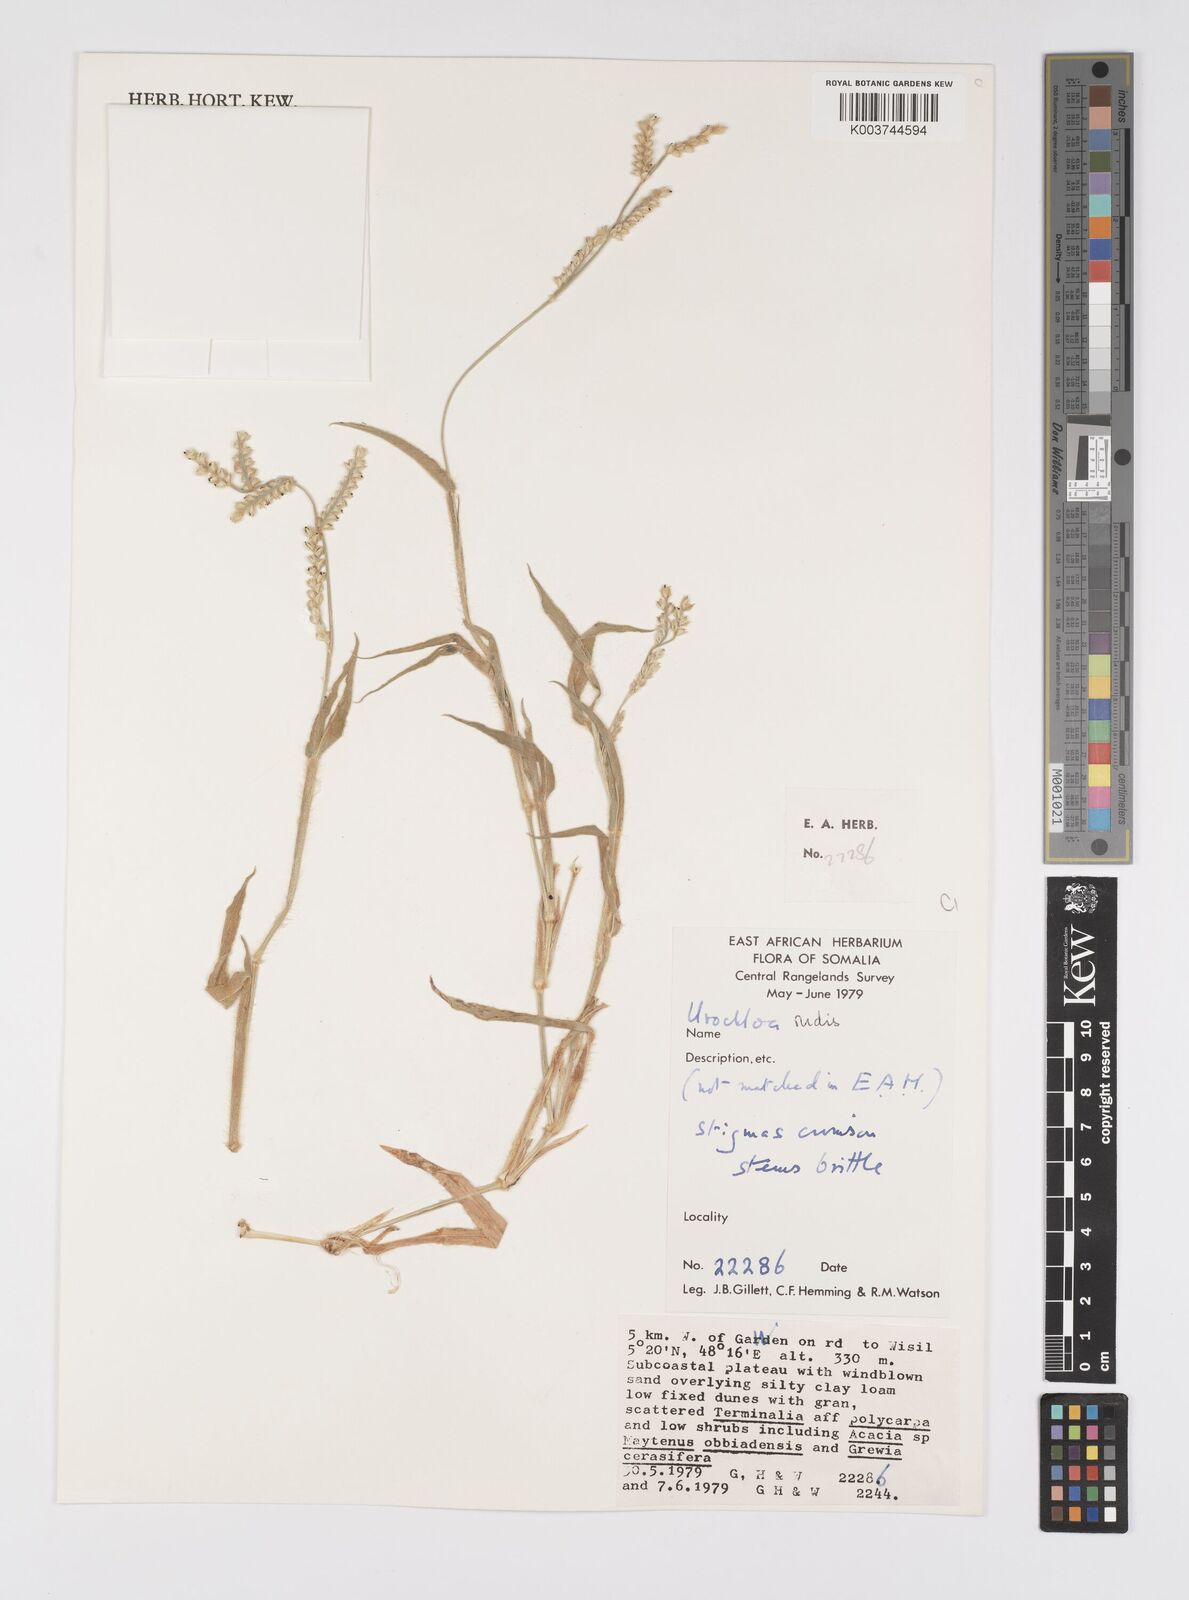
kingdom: Plantae
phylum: Tracheophyta
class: Liliopsida
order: Poales
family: Poaceae
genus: Urochloa
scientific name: Urochloa rudis
